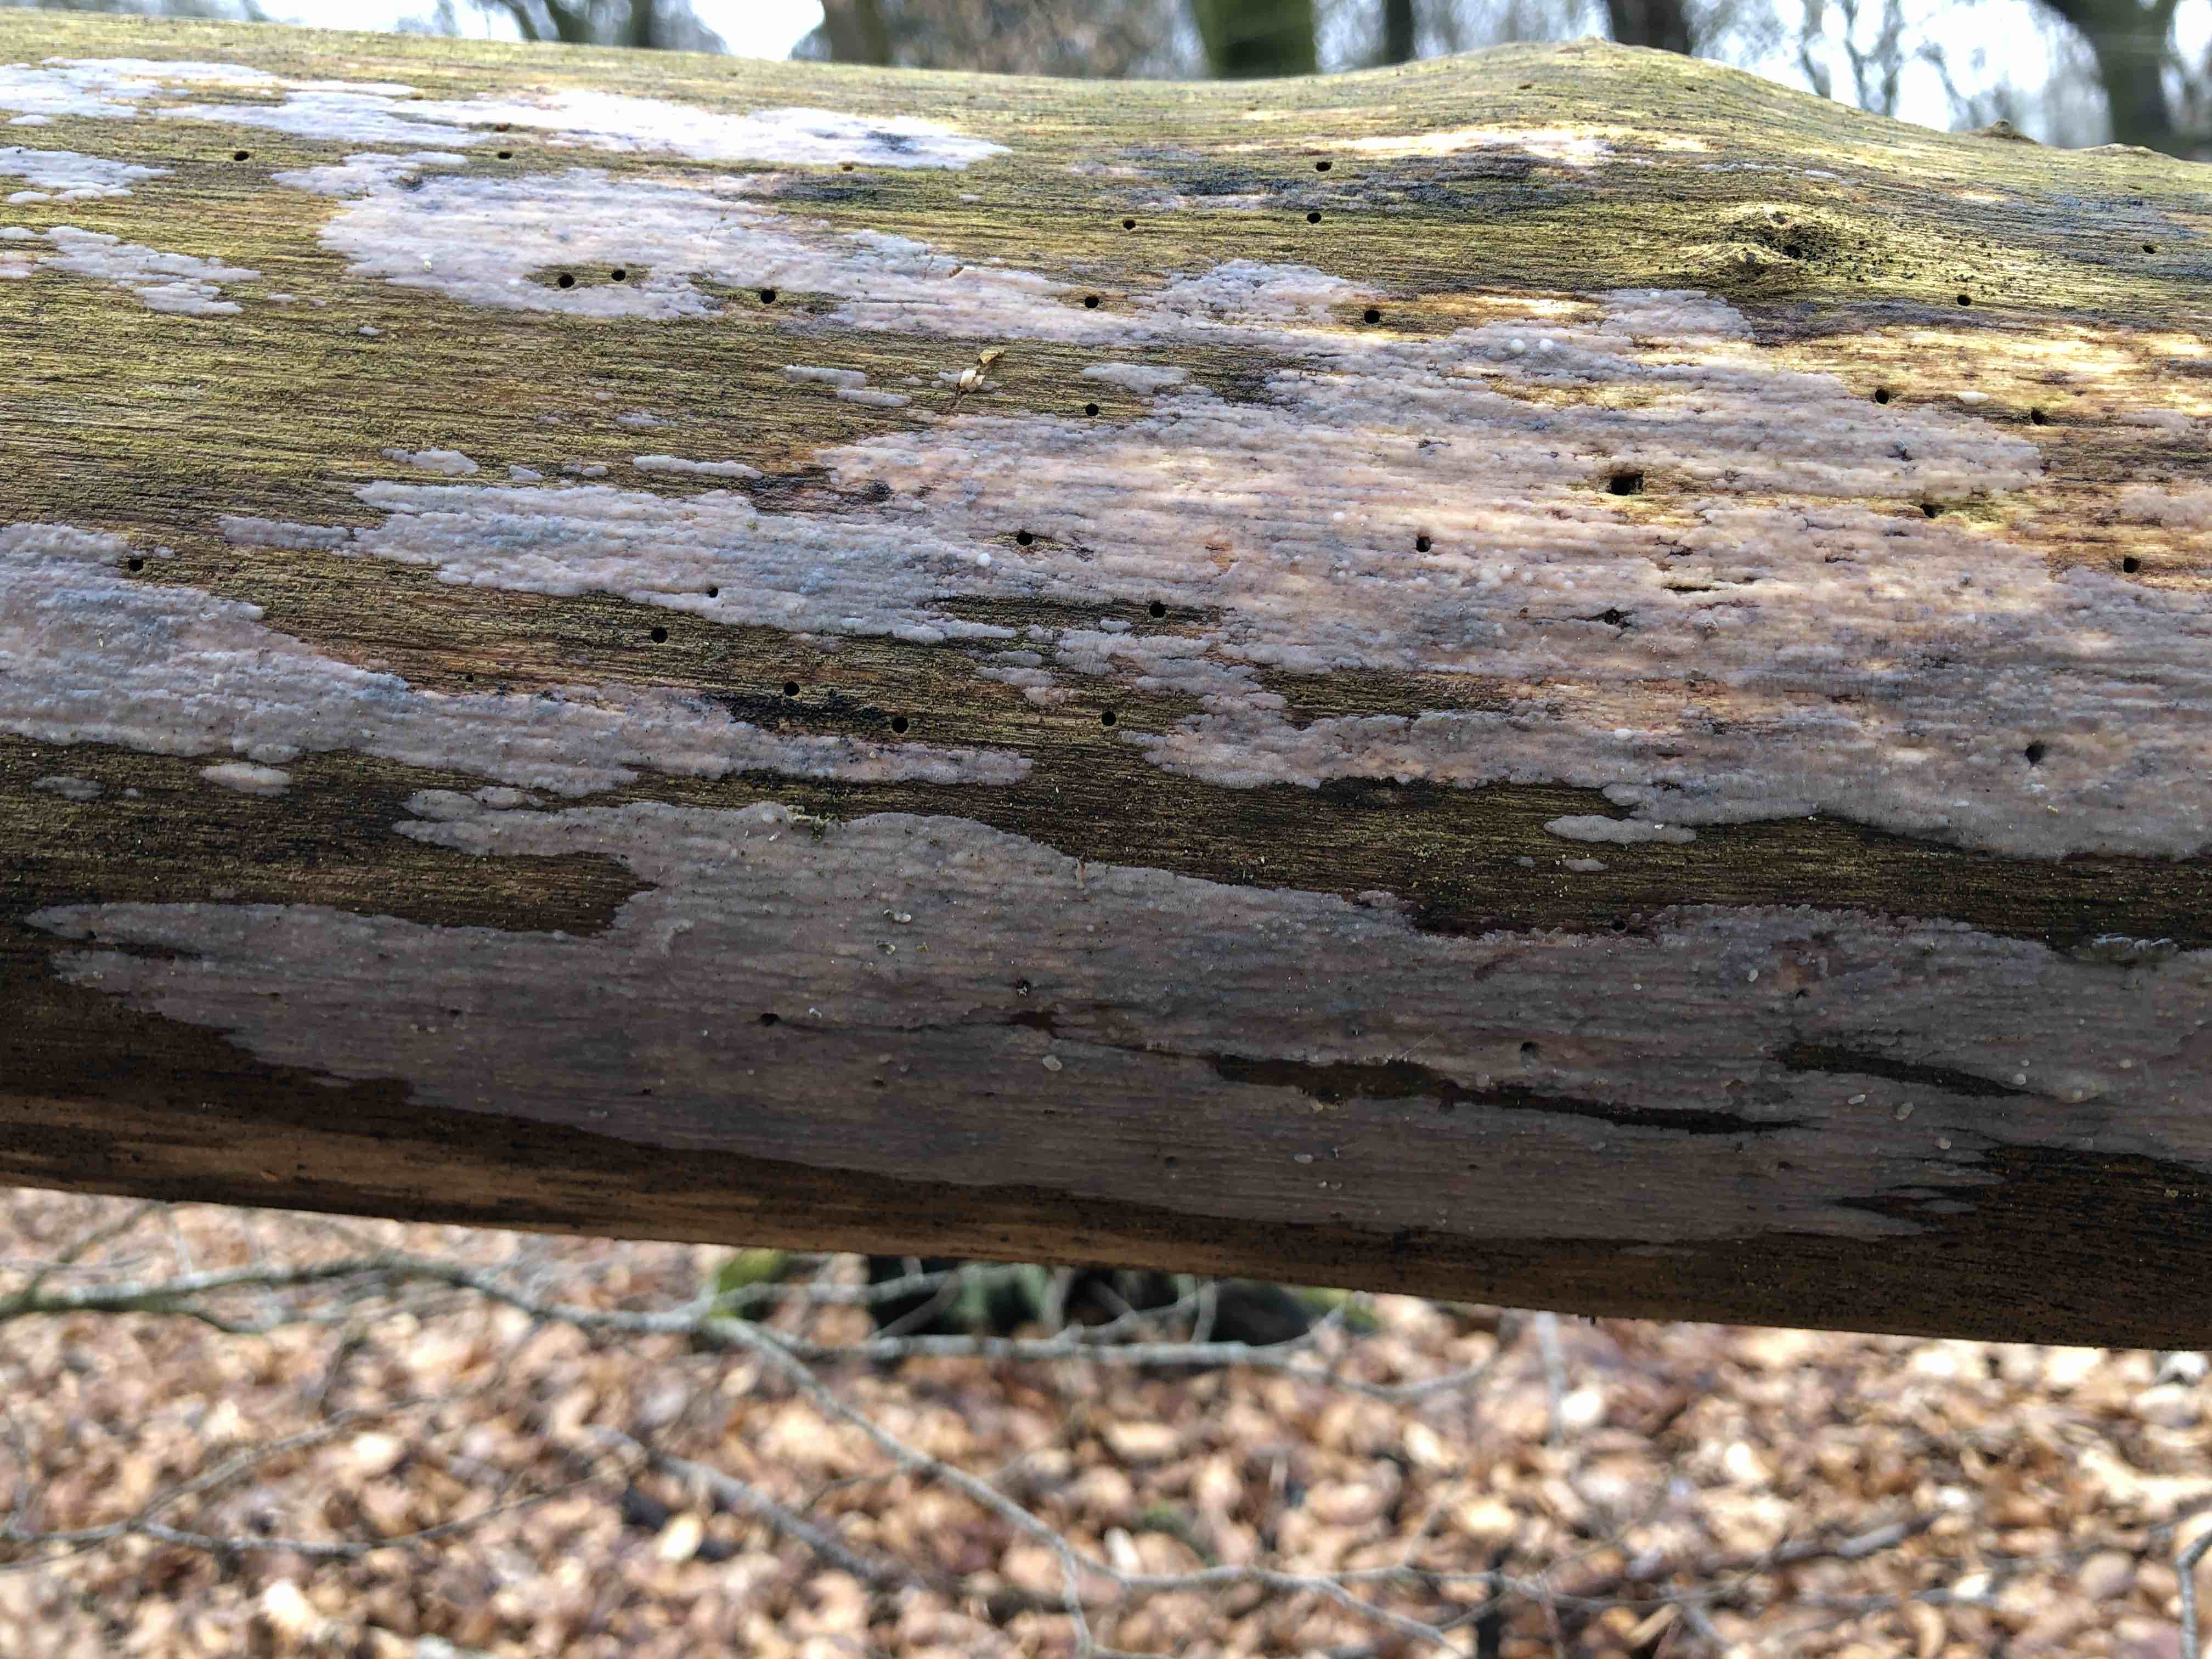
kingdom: Fungi
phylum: Basidiomycota
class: Tremellomycetes
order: Tremellales
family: Exidiaceae
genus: Exidiopsis
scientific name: Exidiopsis effusa
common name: smuk bævrehinde
